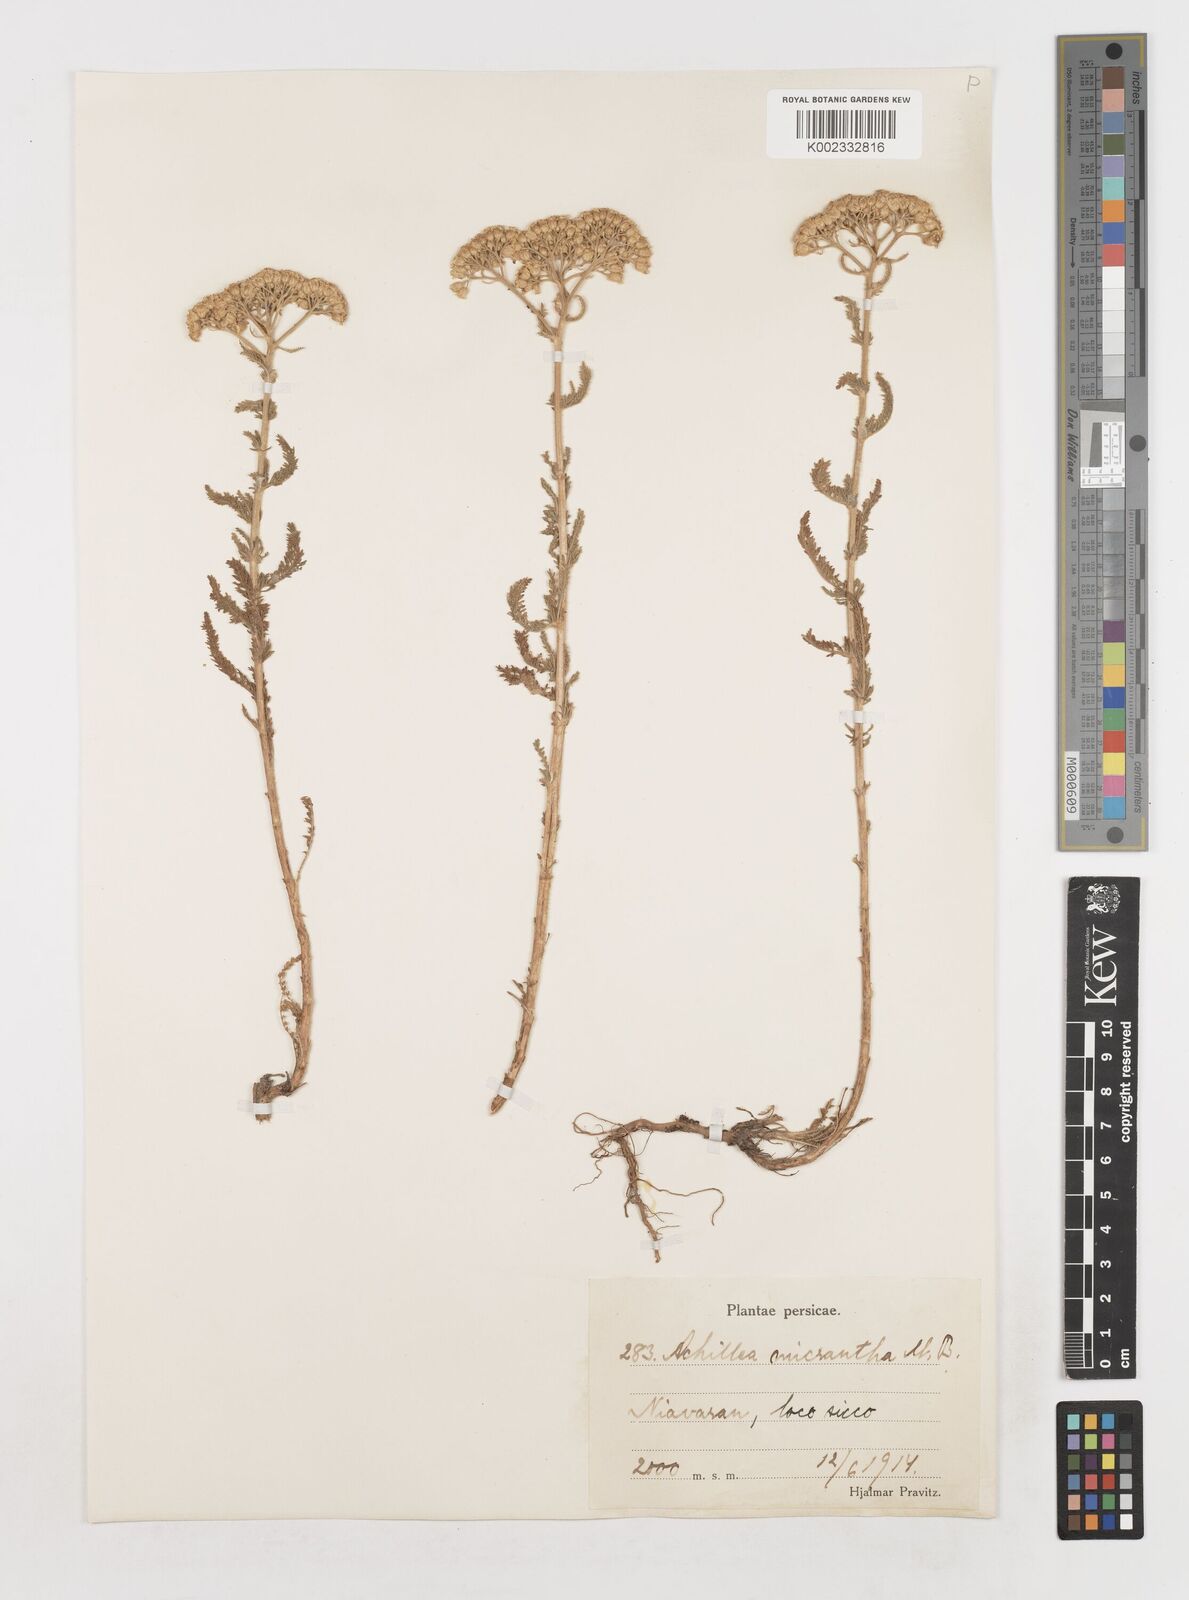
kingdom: Plantae
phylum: Tracheophyta
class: Magnoliopsida
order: Asterales
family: Asteraceae
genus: Achillea
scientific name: Achillea arabica
